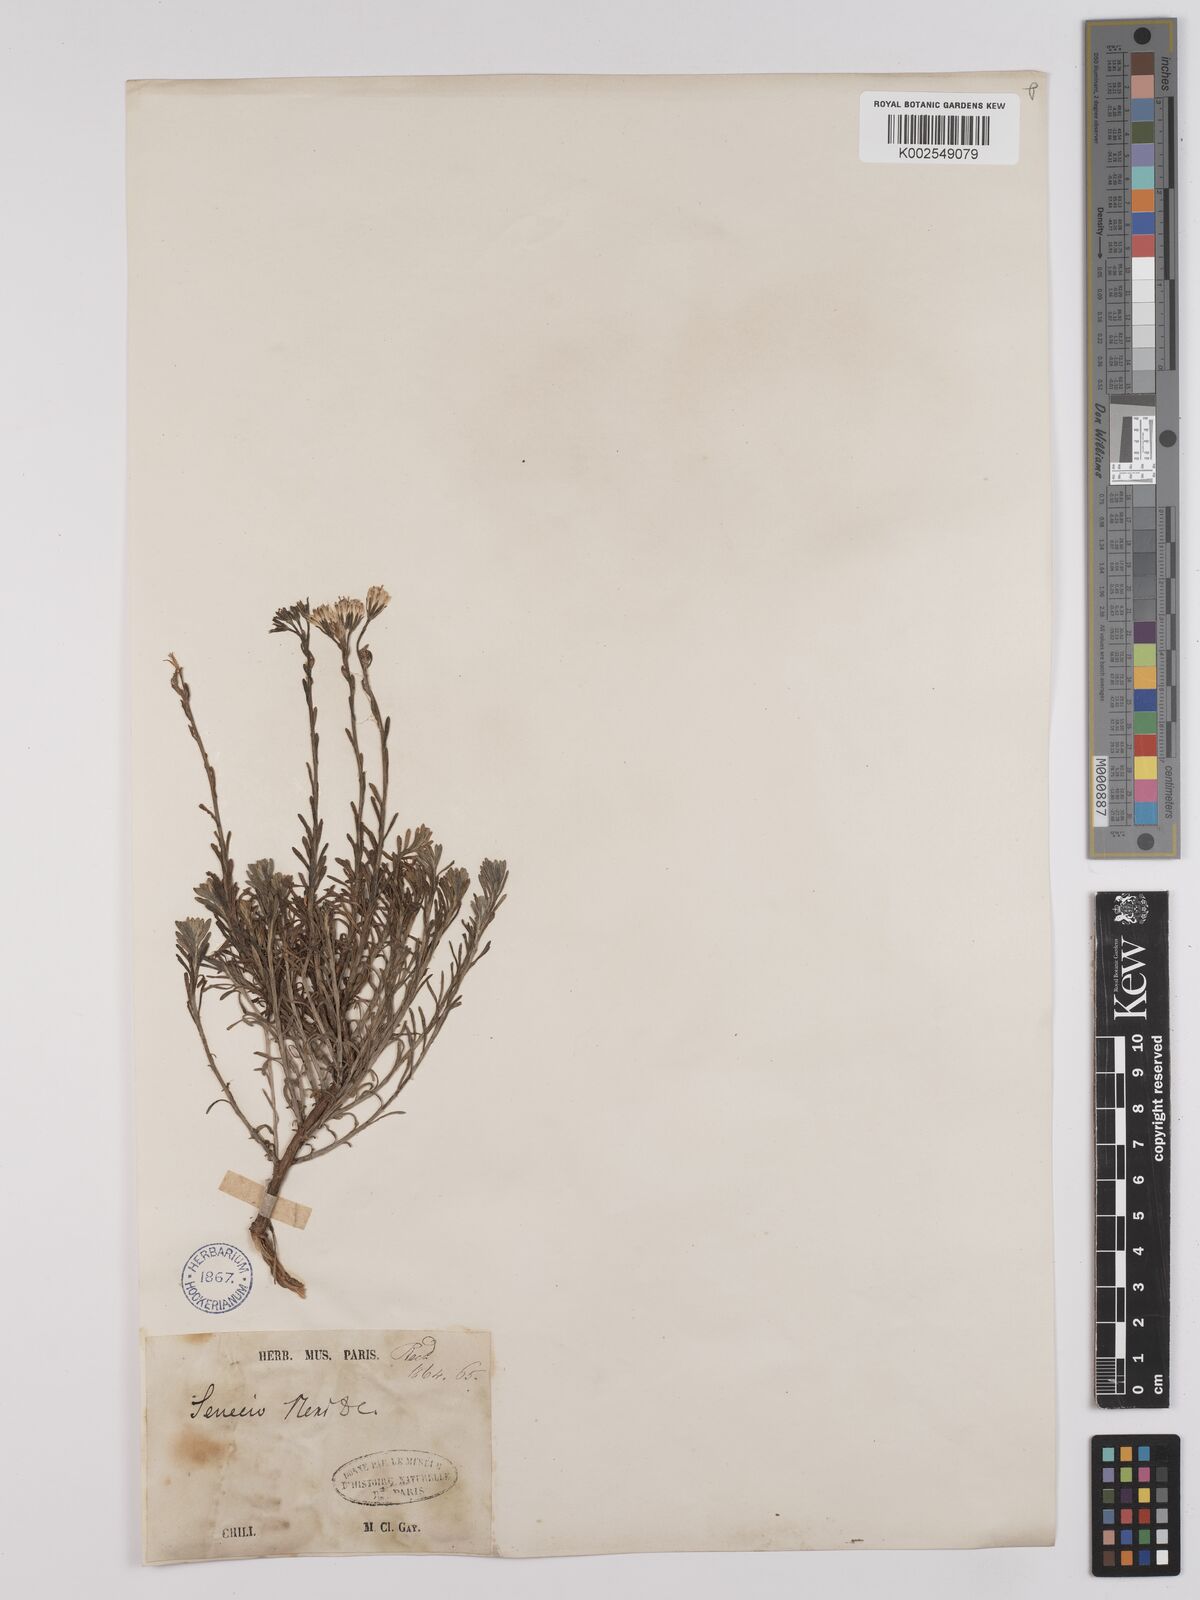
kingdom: Plantae
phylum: Tracheophyta
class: Magnoliopsida
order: Asterales
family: Asteraceae
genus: Senecio
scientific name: Senecio neaei
